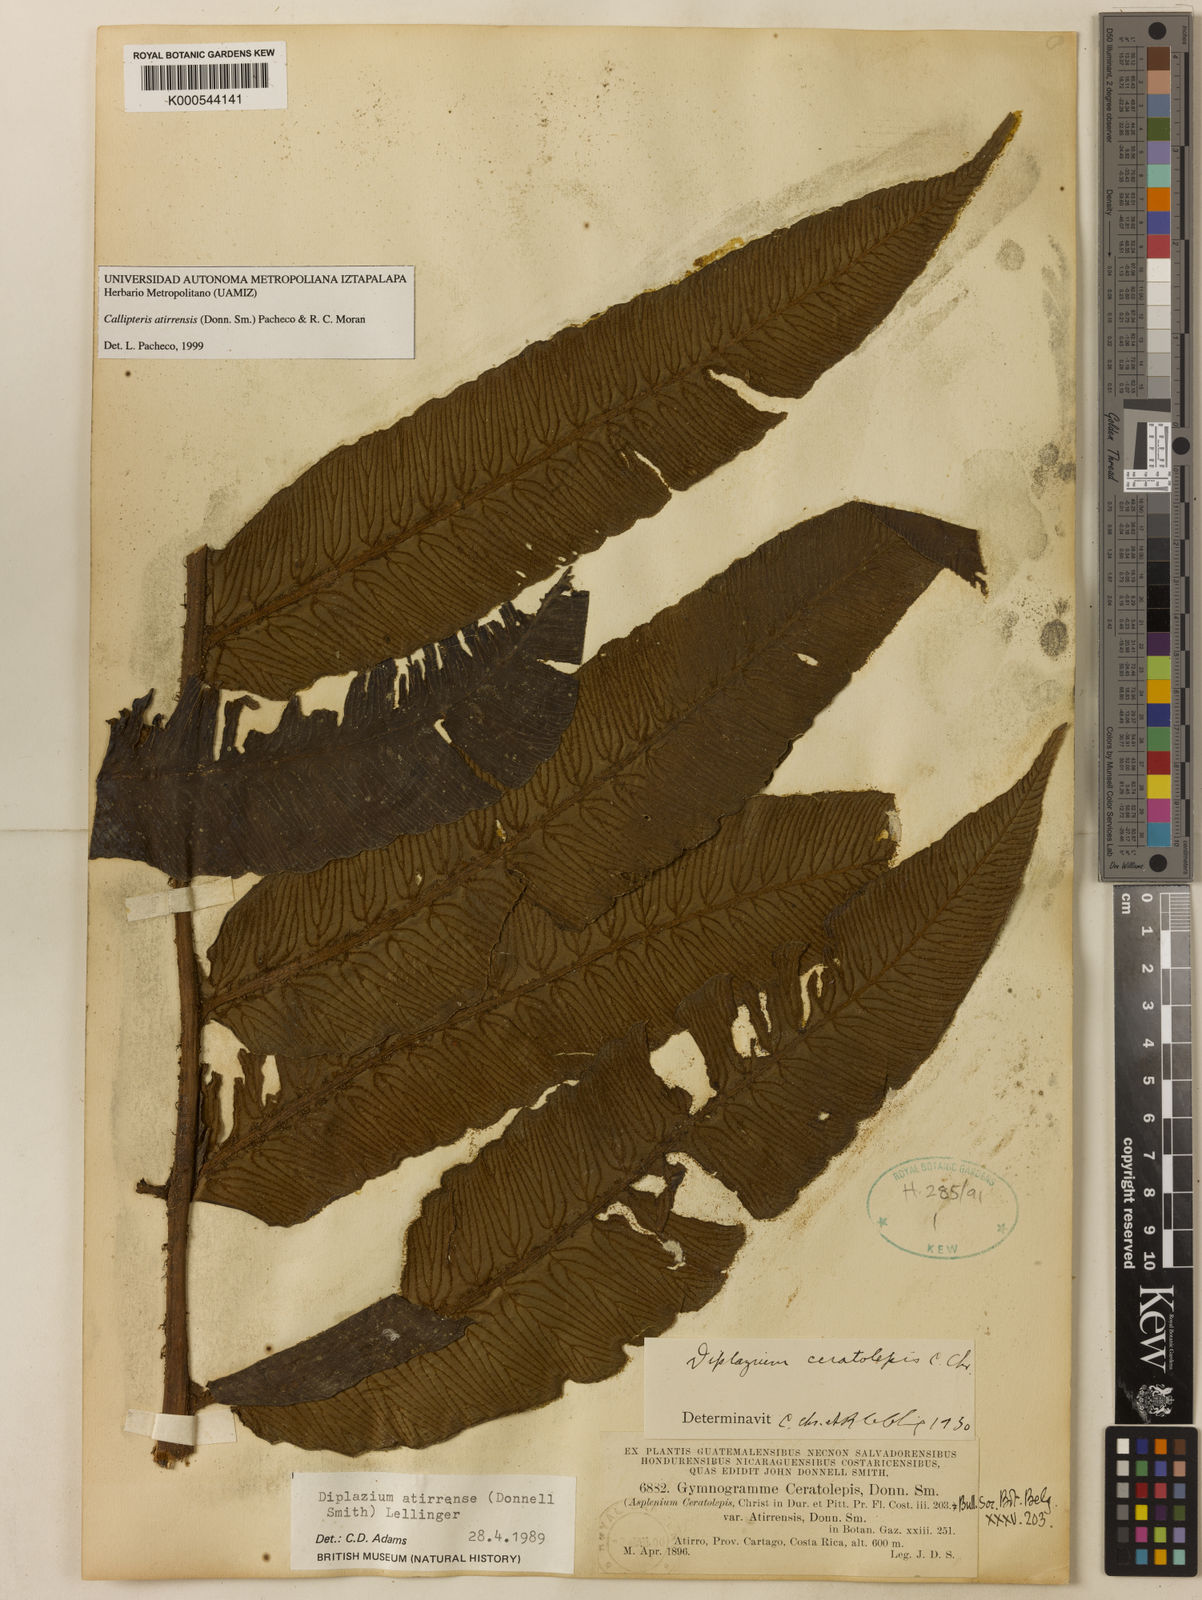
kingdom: Plantae
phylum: Tracheophyta
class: Polypodiopsida
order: Polypodiales
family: Athyriaceae
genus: Diplazium
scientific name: Diplazium atirrense
